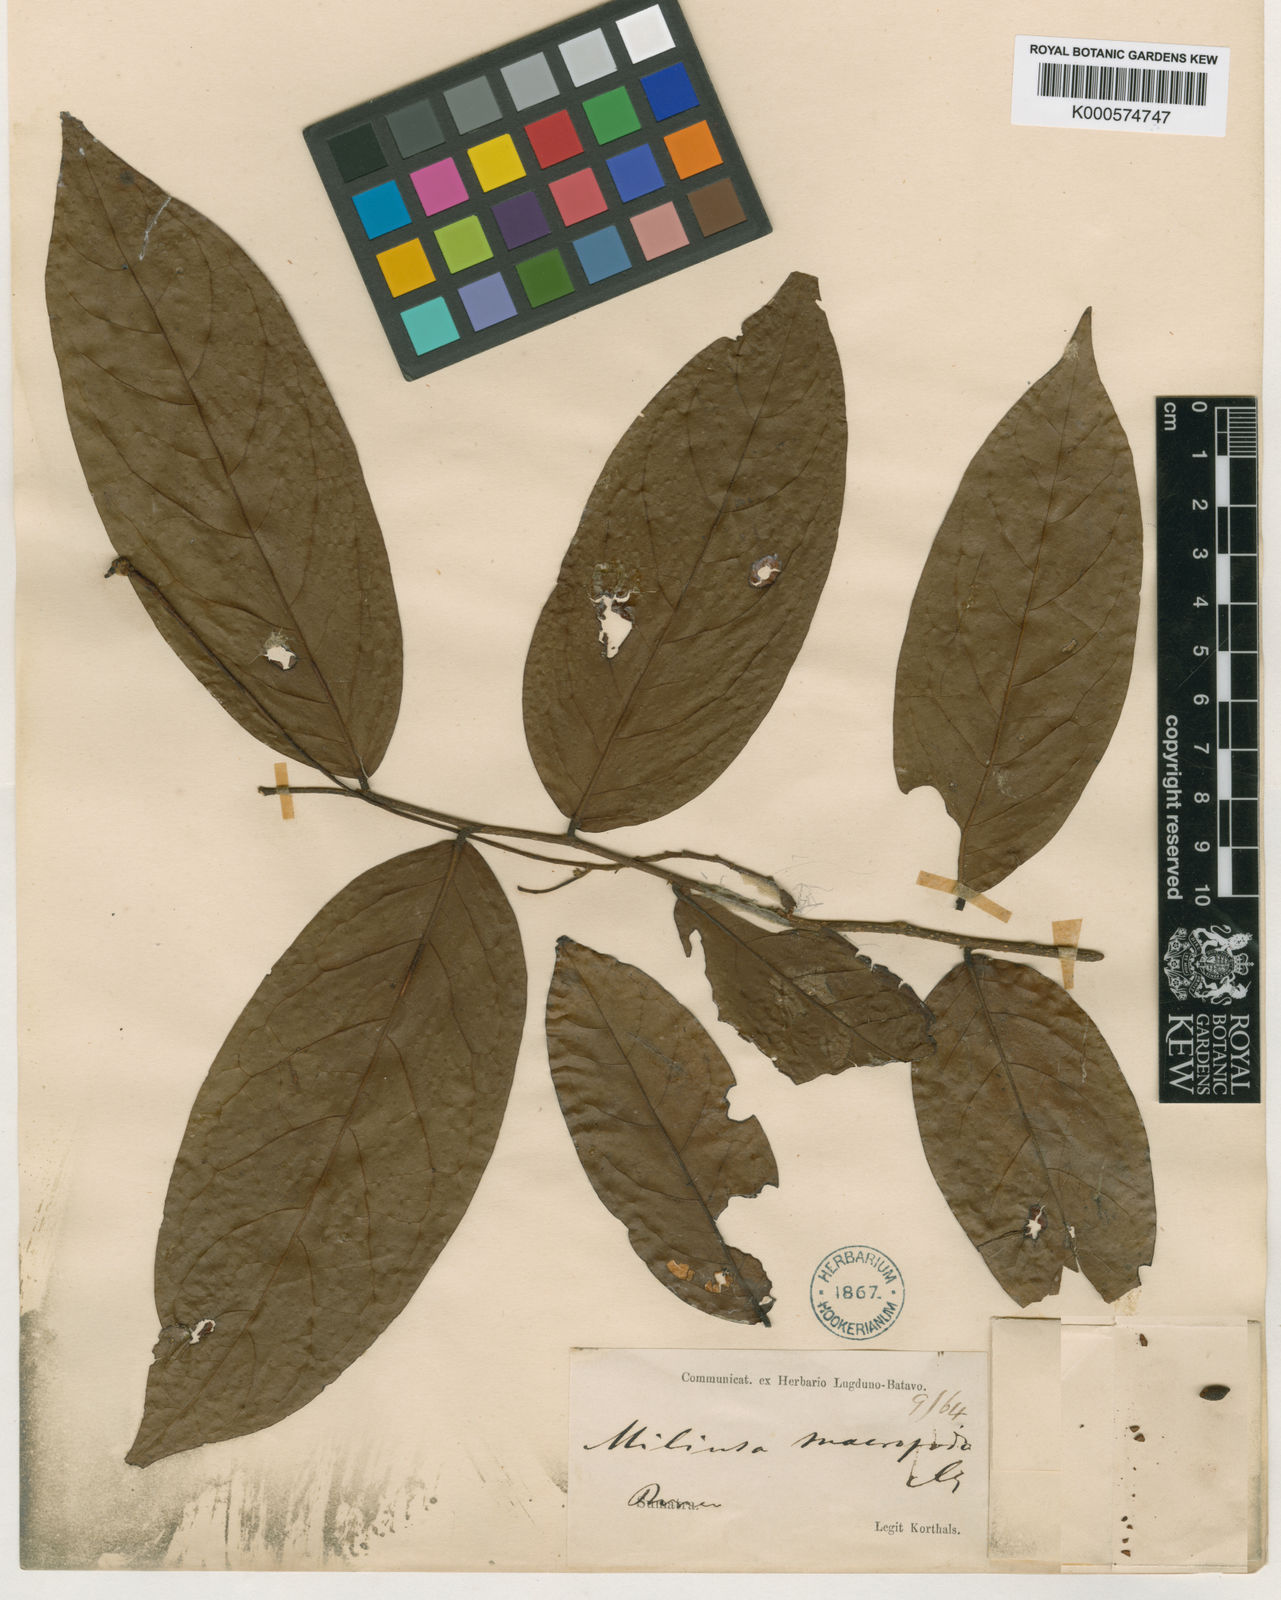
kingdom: Plantae
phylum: Tracheophyta
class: Magnoliopsida
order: Magnoliales
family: Annonaceae
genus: Miliusa
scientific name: Miliusa macropoda
